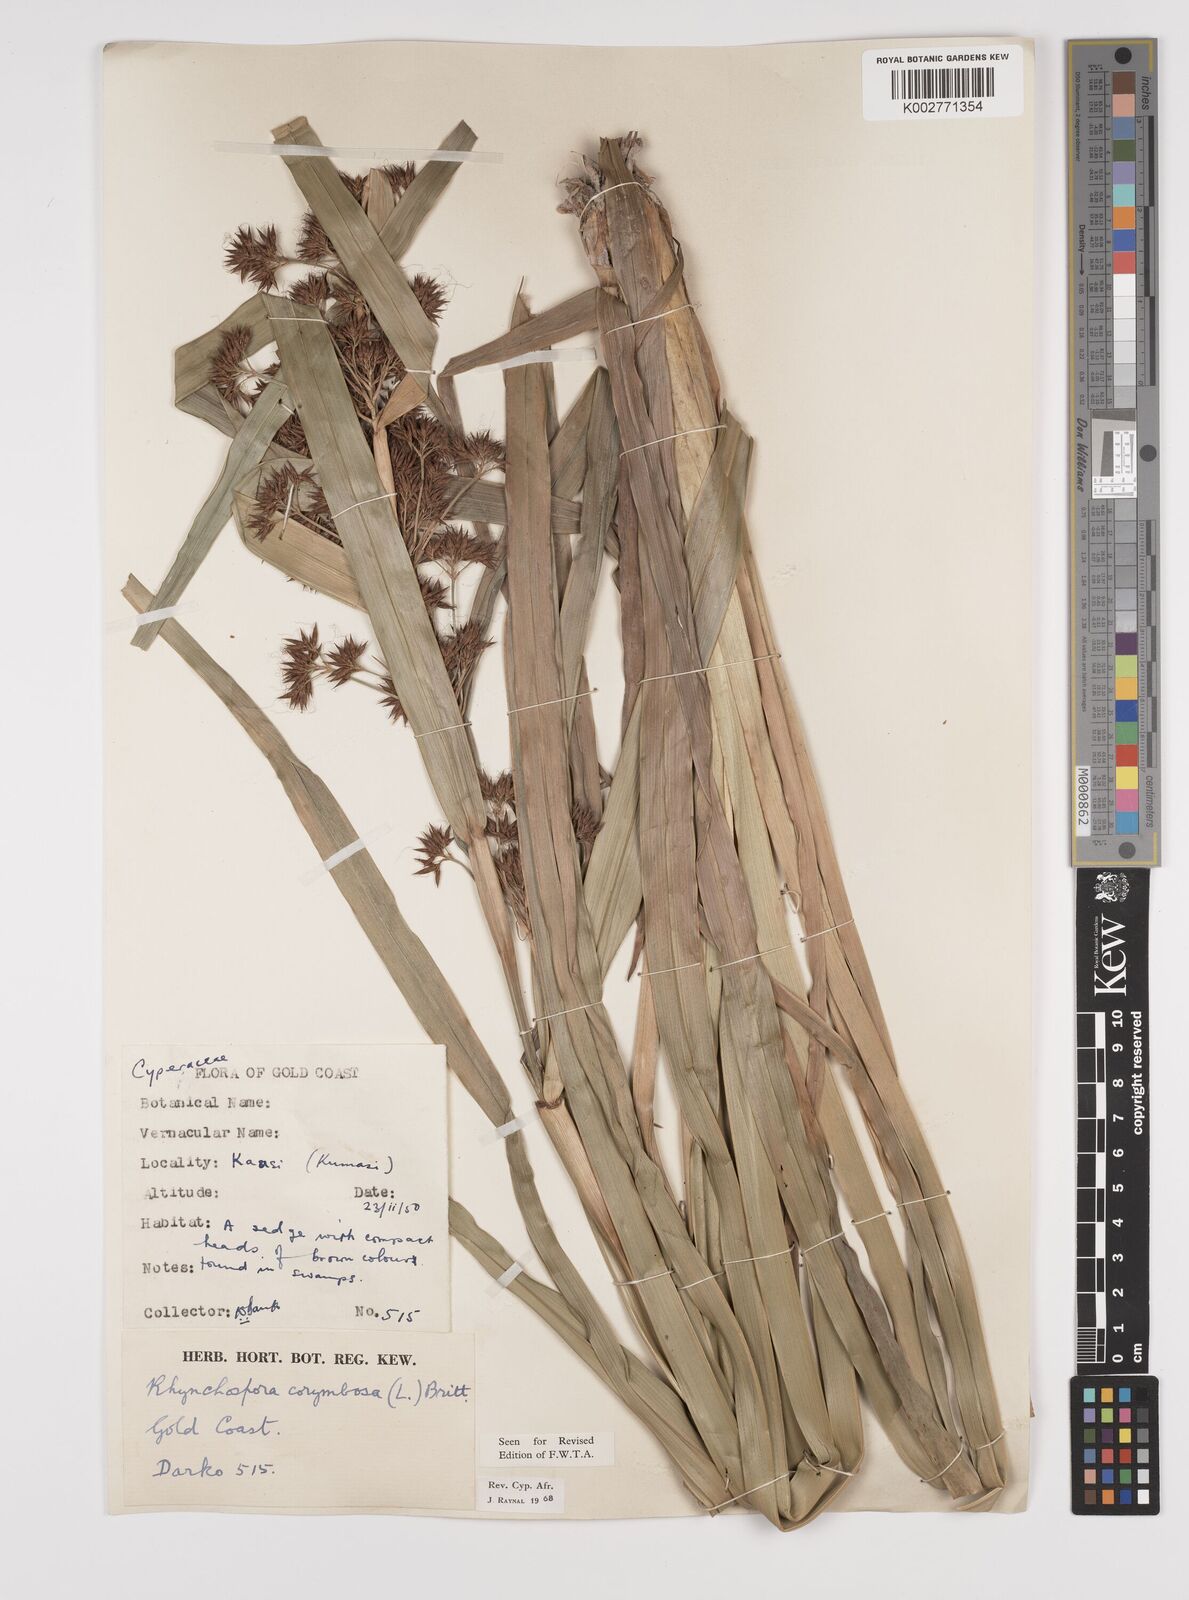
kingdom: Plantae
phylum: Tracheophyta
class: Liliopsida
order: Poales
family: Cyperaceae
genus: Rhynchospora
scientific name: Rhynchospora corymbosa
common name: Golden beak sedge
